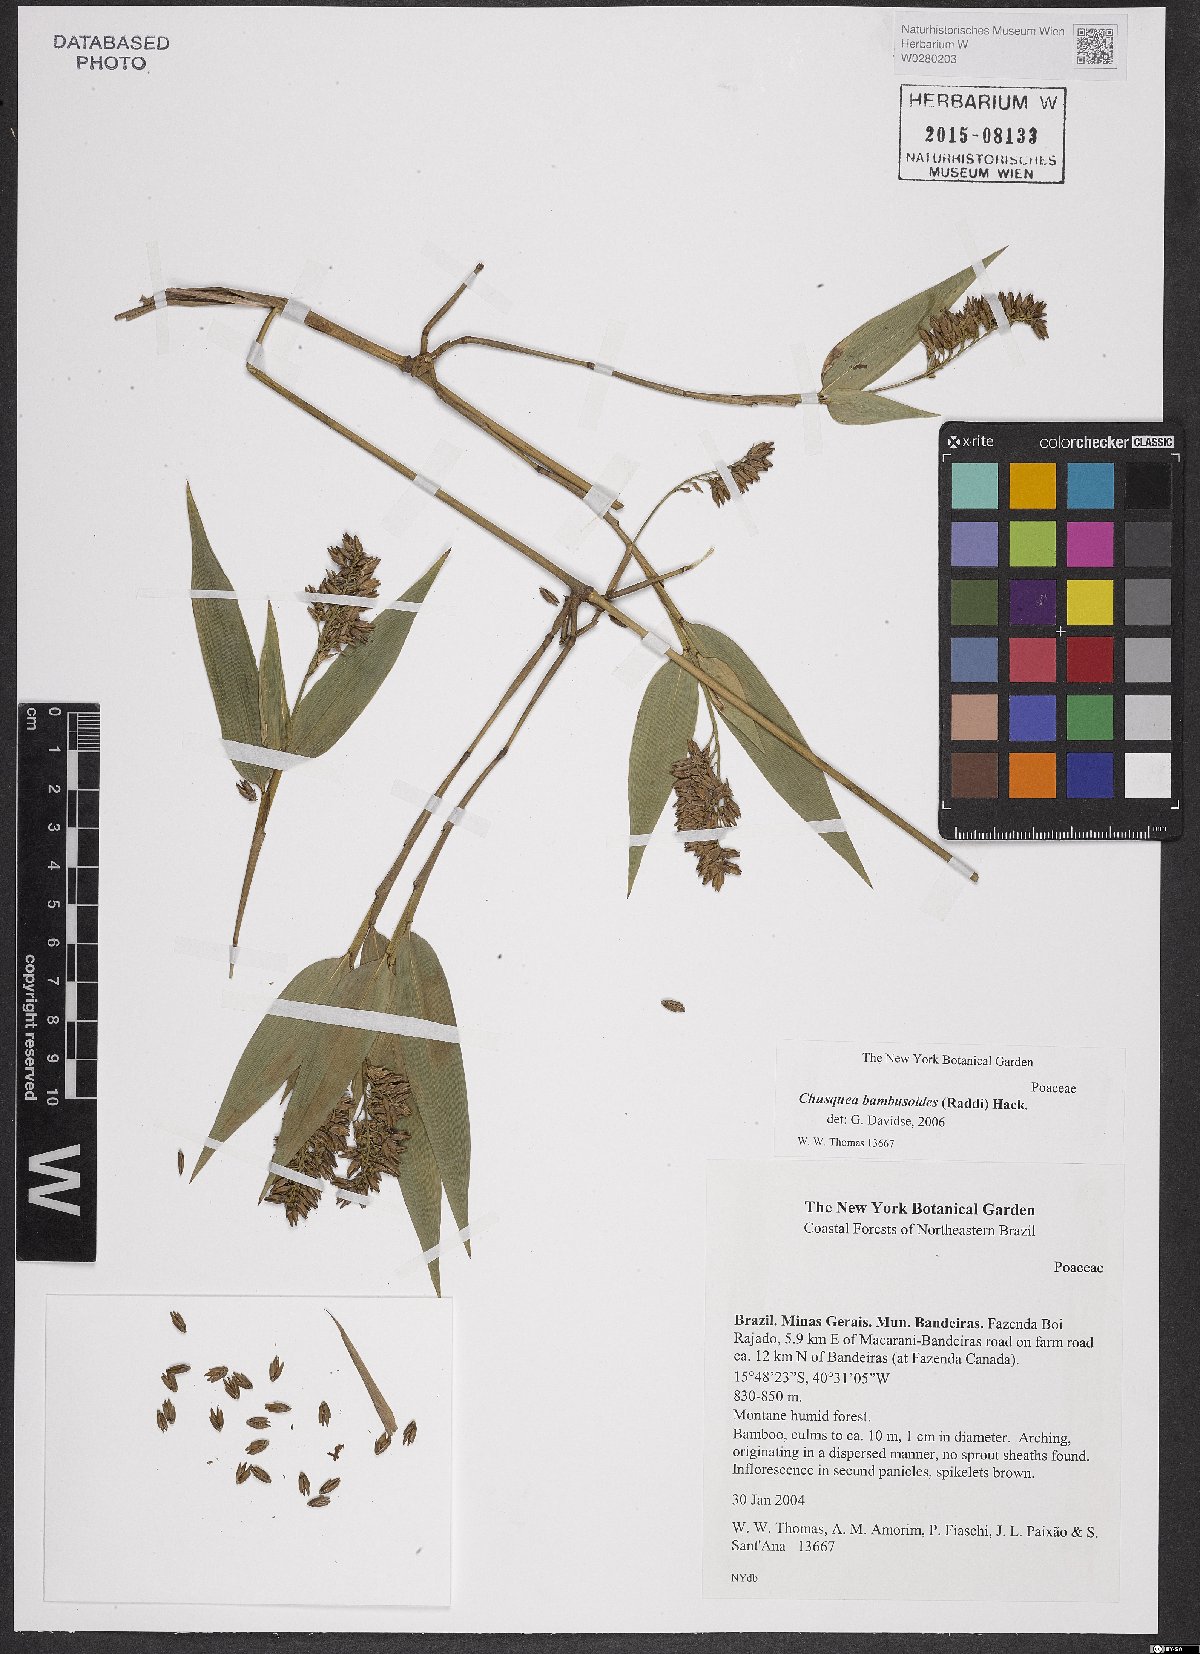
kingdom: Plantae
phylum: Tracheophyta
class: Liliopsida
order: Poales
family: Poaceae
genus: Chusquea
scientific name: Chusquea bambusoides
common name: Brazil scrambling bamboo
